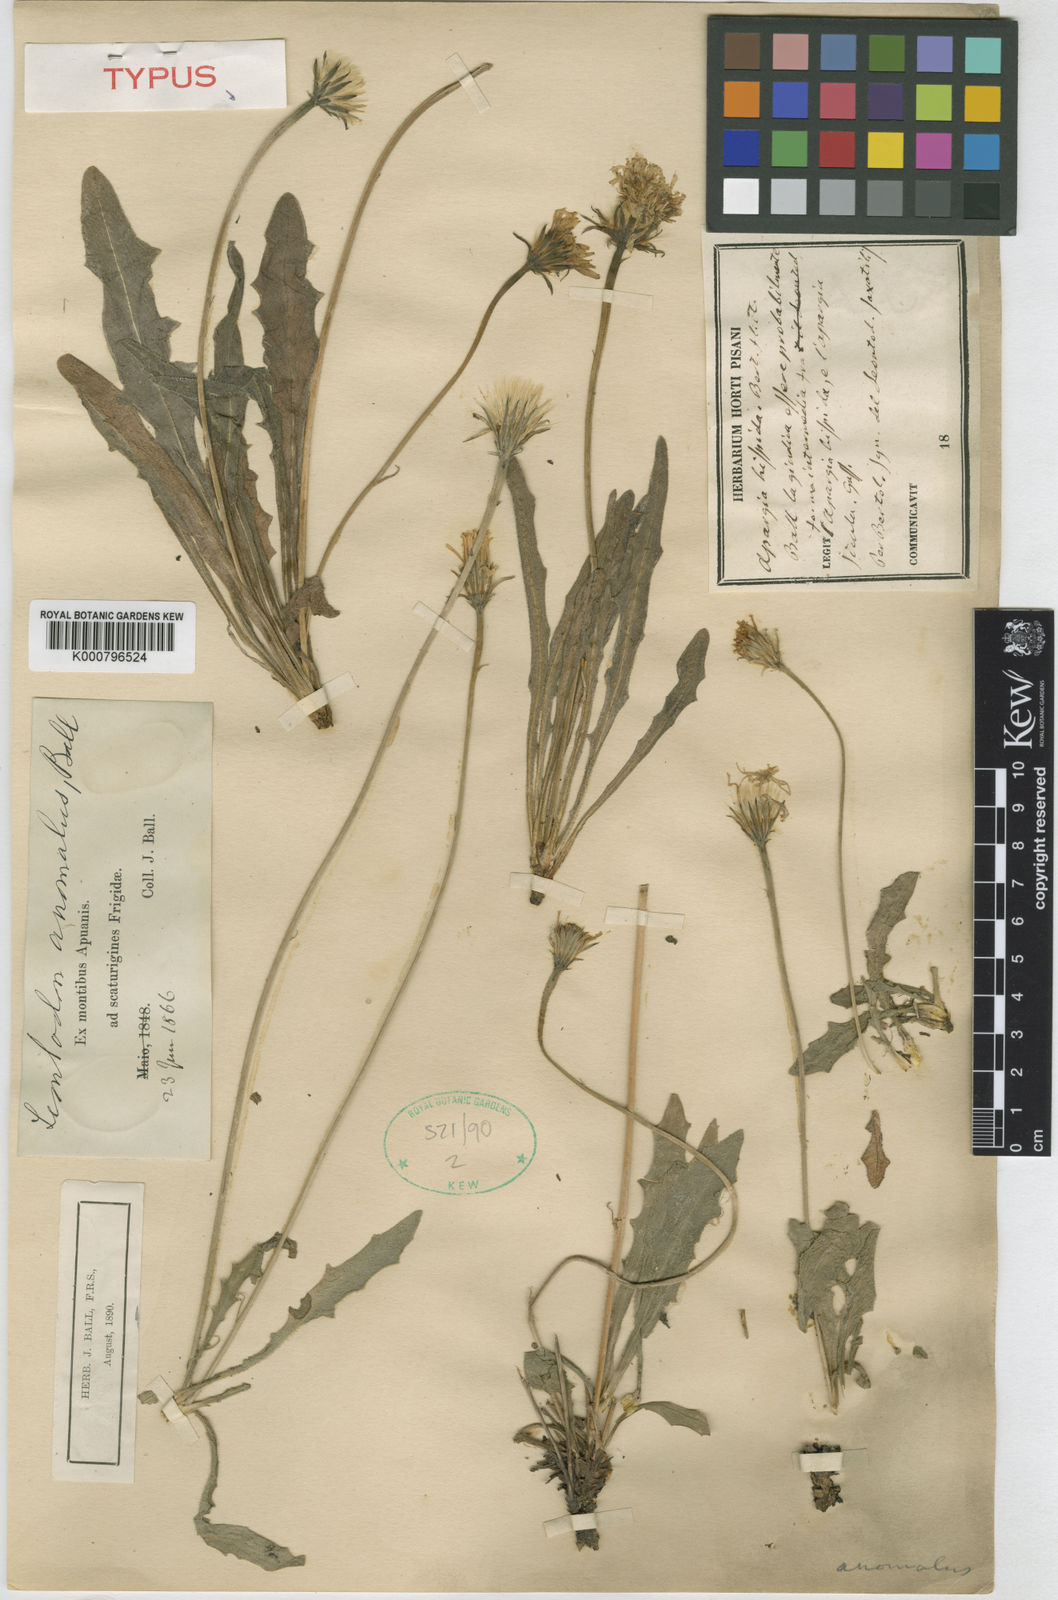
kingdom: Plantae
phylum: Tracheophyta
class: Magnoliopsida
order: Asterales
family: Asteraceae
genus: Leontodon
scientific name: Leontodon crispus
